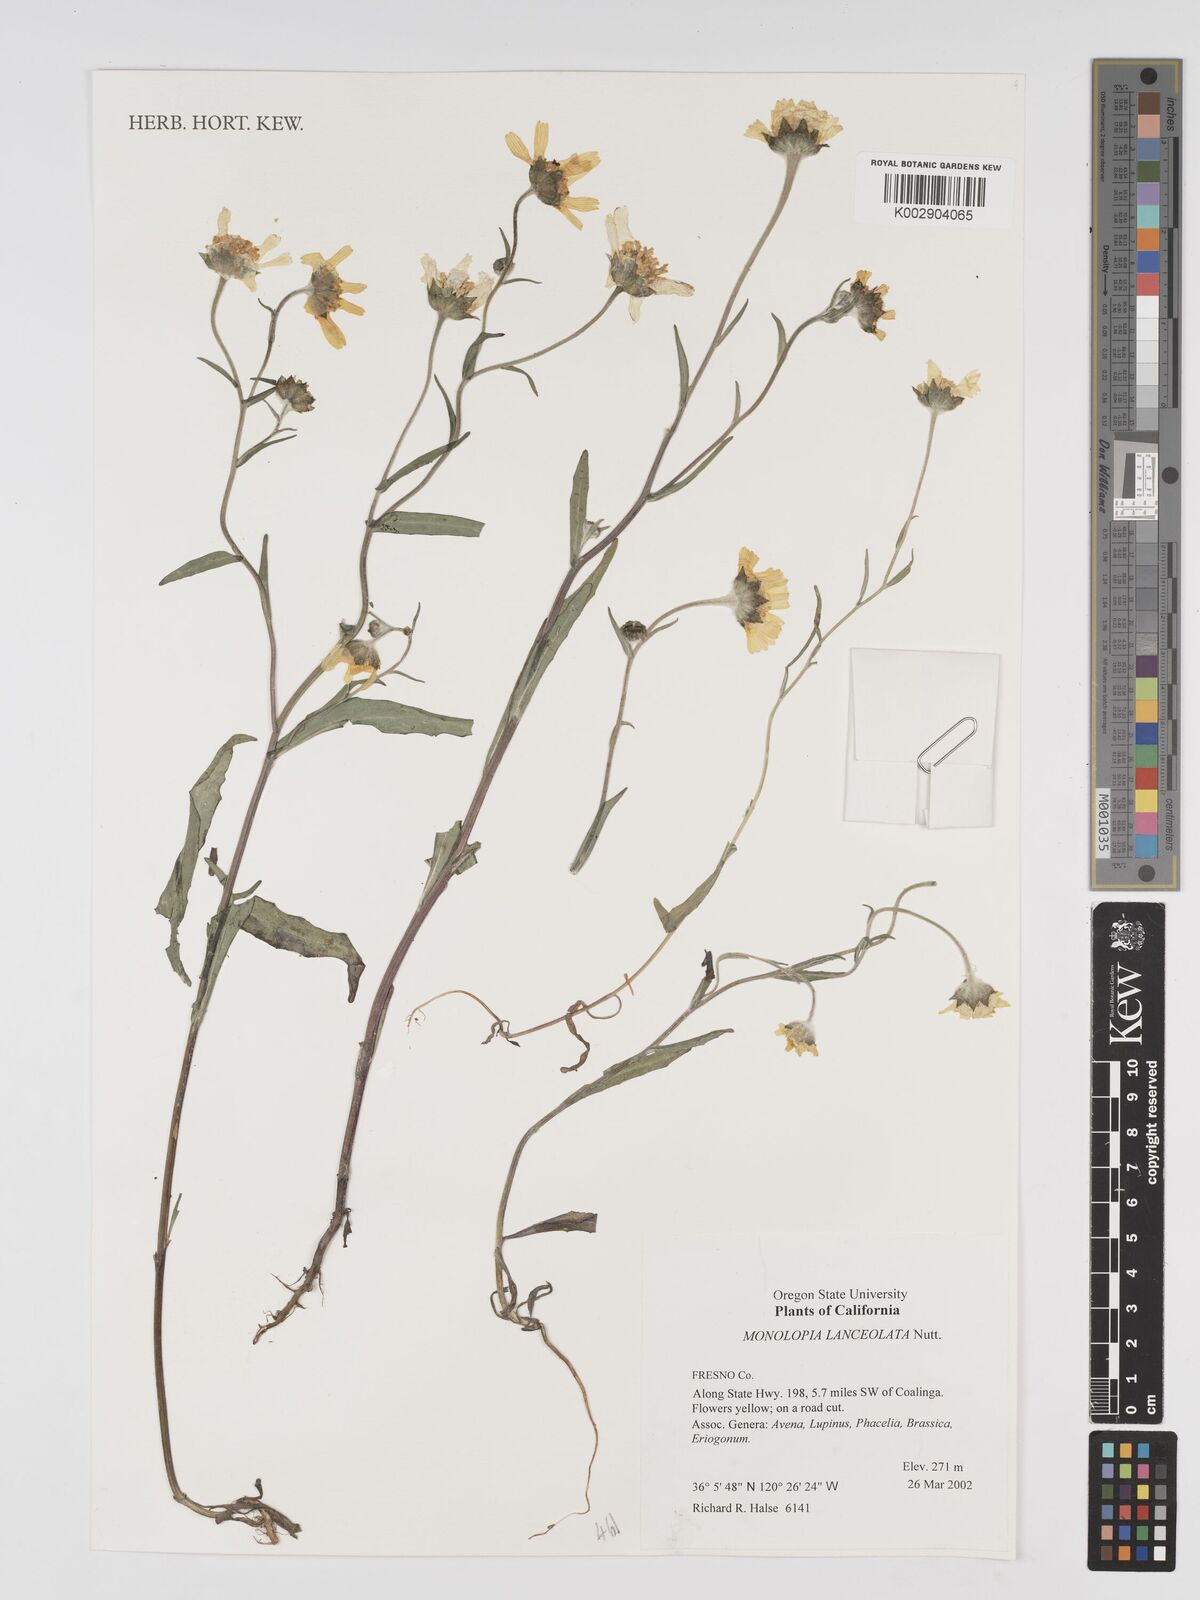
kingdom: Plantae
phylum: Tracheophyta
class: Magnoliopsida
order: Asterales
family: Asteraceae
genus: Monolopia
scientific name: Monolopia lanceolata
